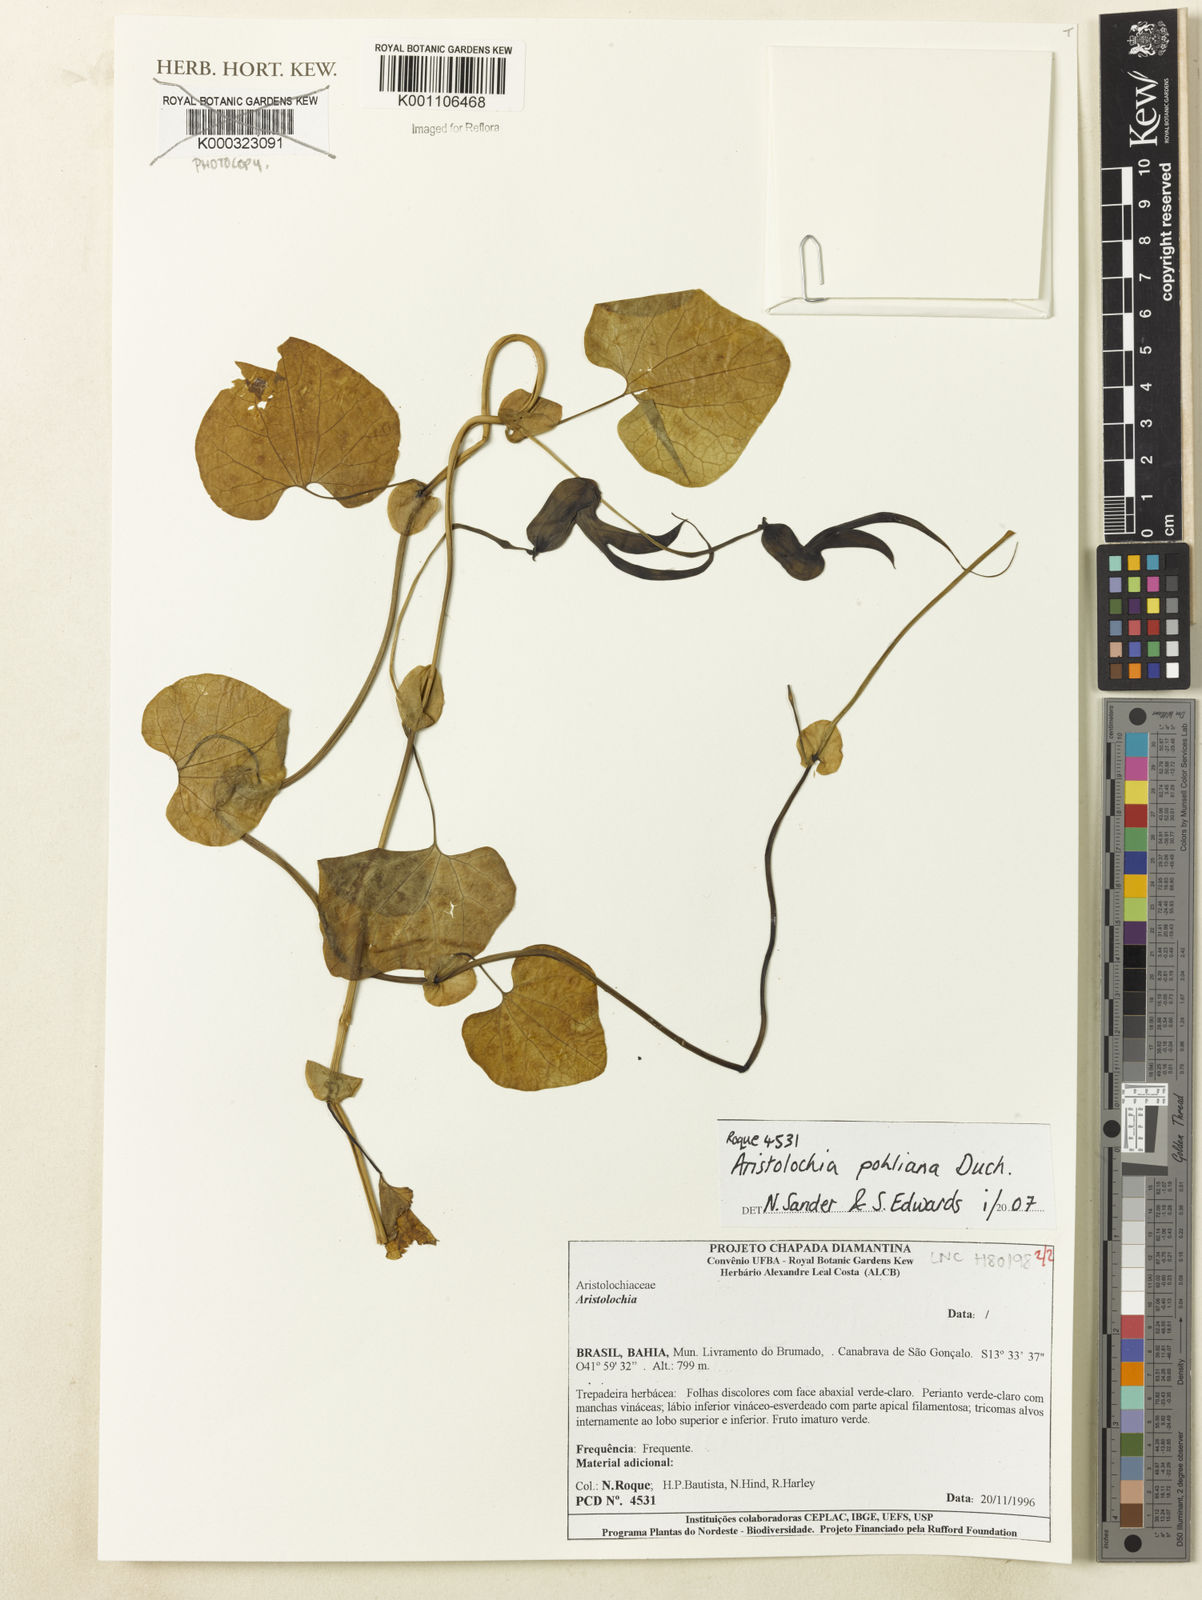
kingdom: Plantae
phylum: Tracheophyta
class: Magnoliopsida
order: Piperales
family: Aristolochiaceae
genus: Aristolochia
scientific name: Aristolochia pohliana
